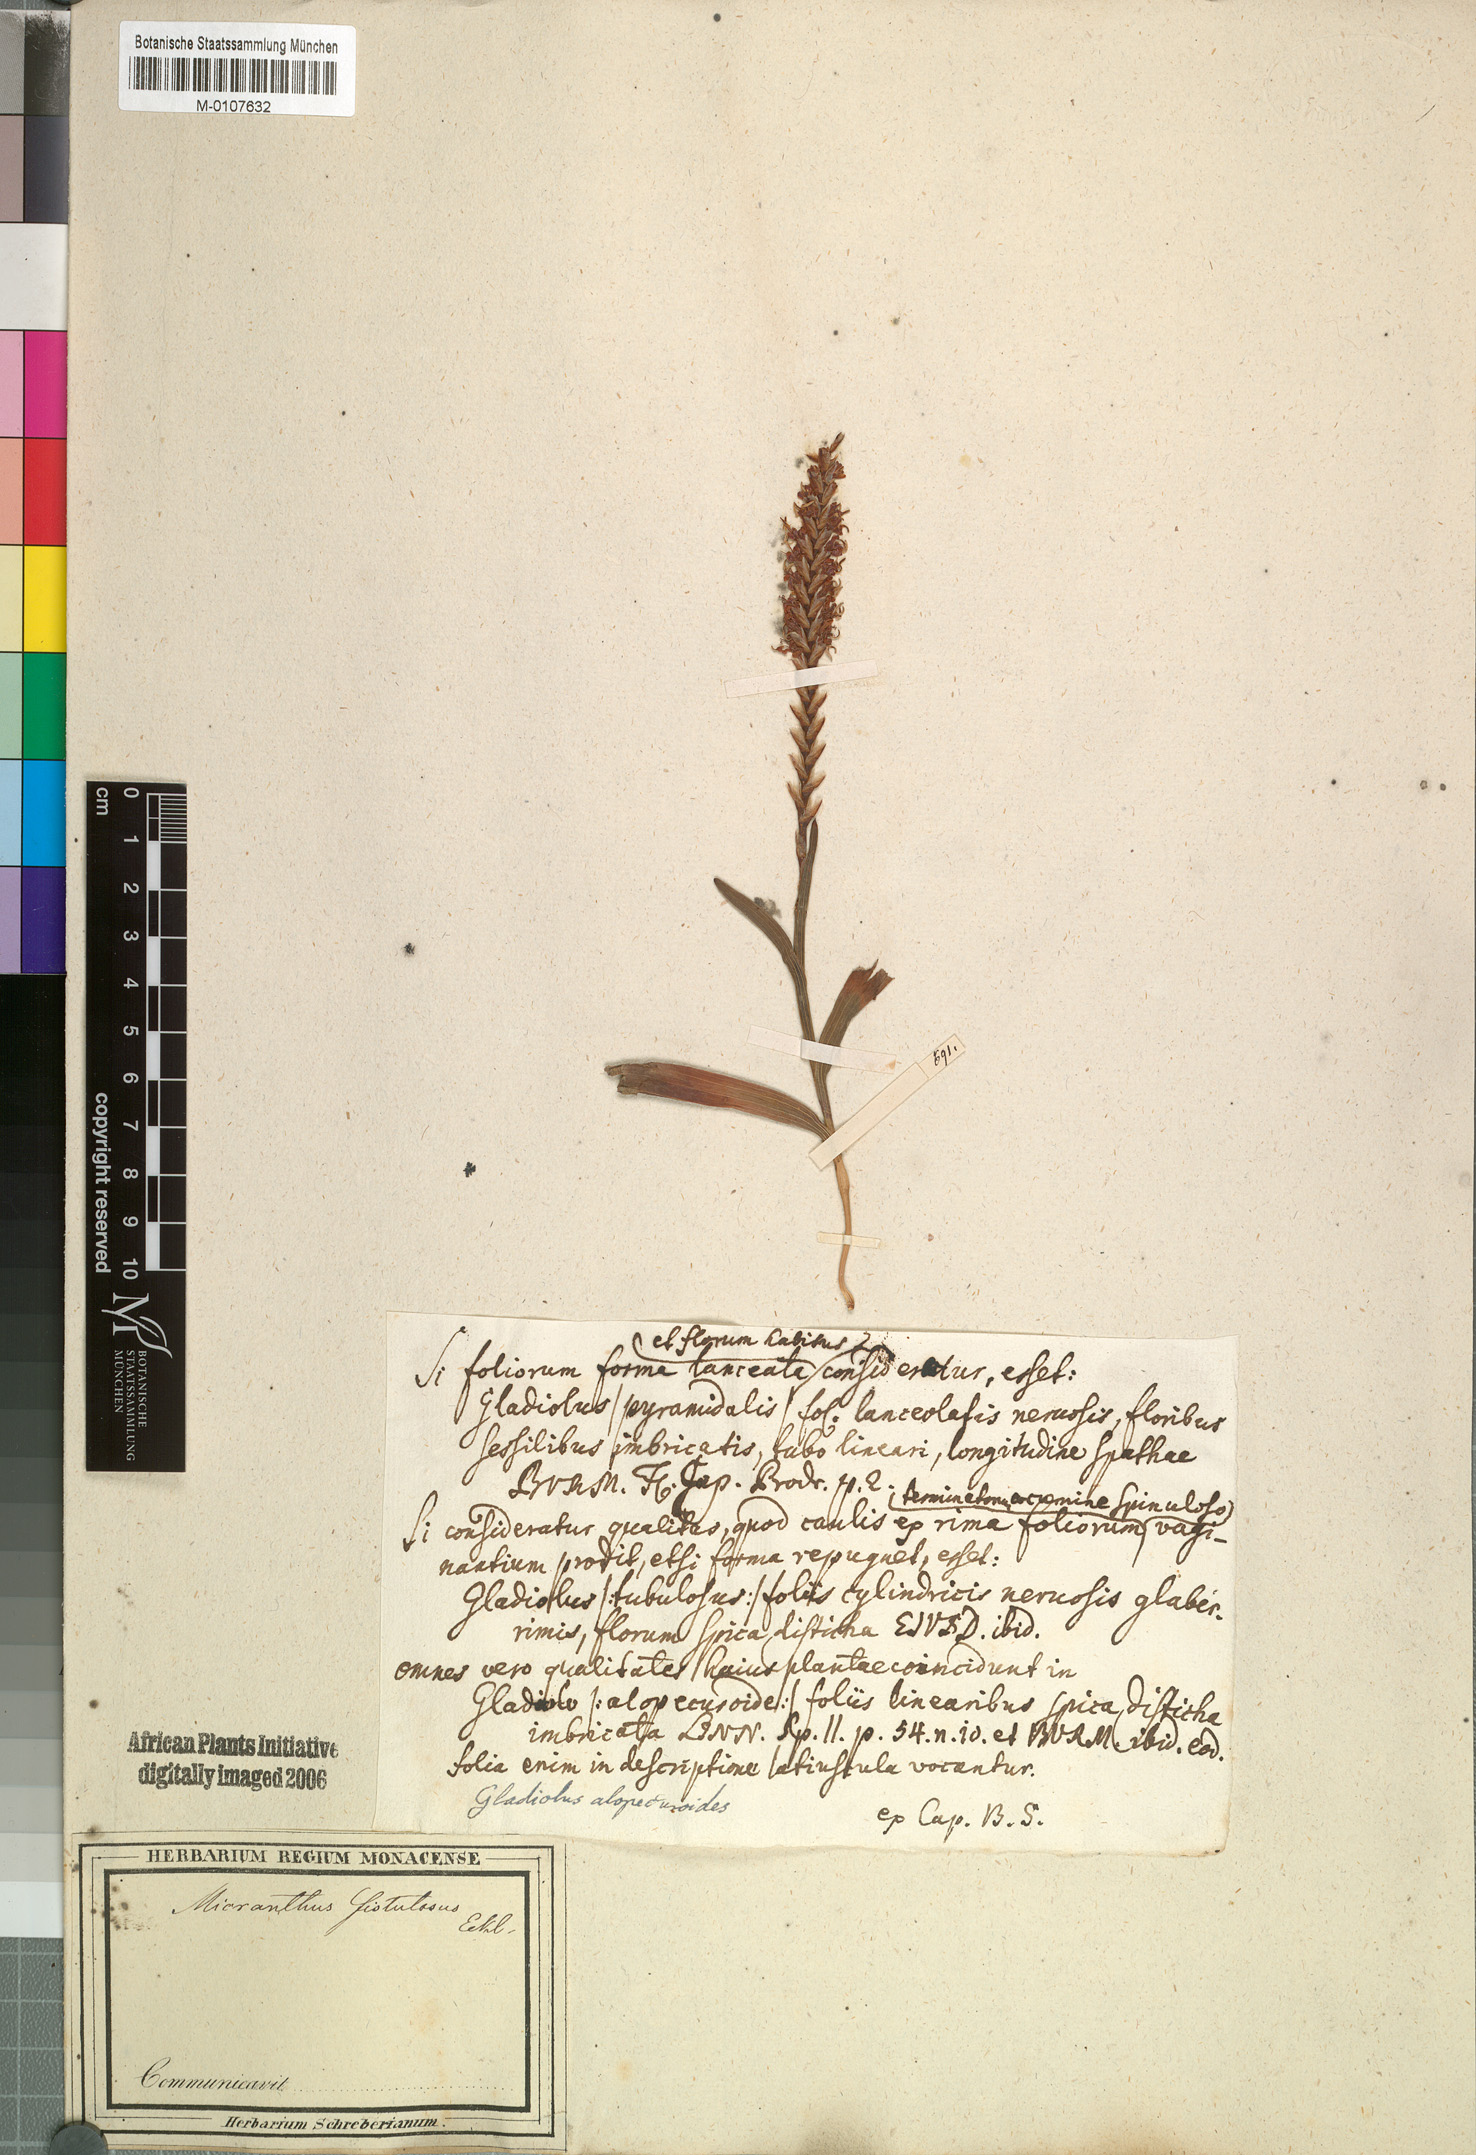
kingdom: Plantae
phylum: Tracheophyta
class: Liliopsida
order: Asparagales
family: Iridaceae
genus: Micranthus
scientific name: Micranthus alopecuroides
